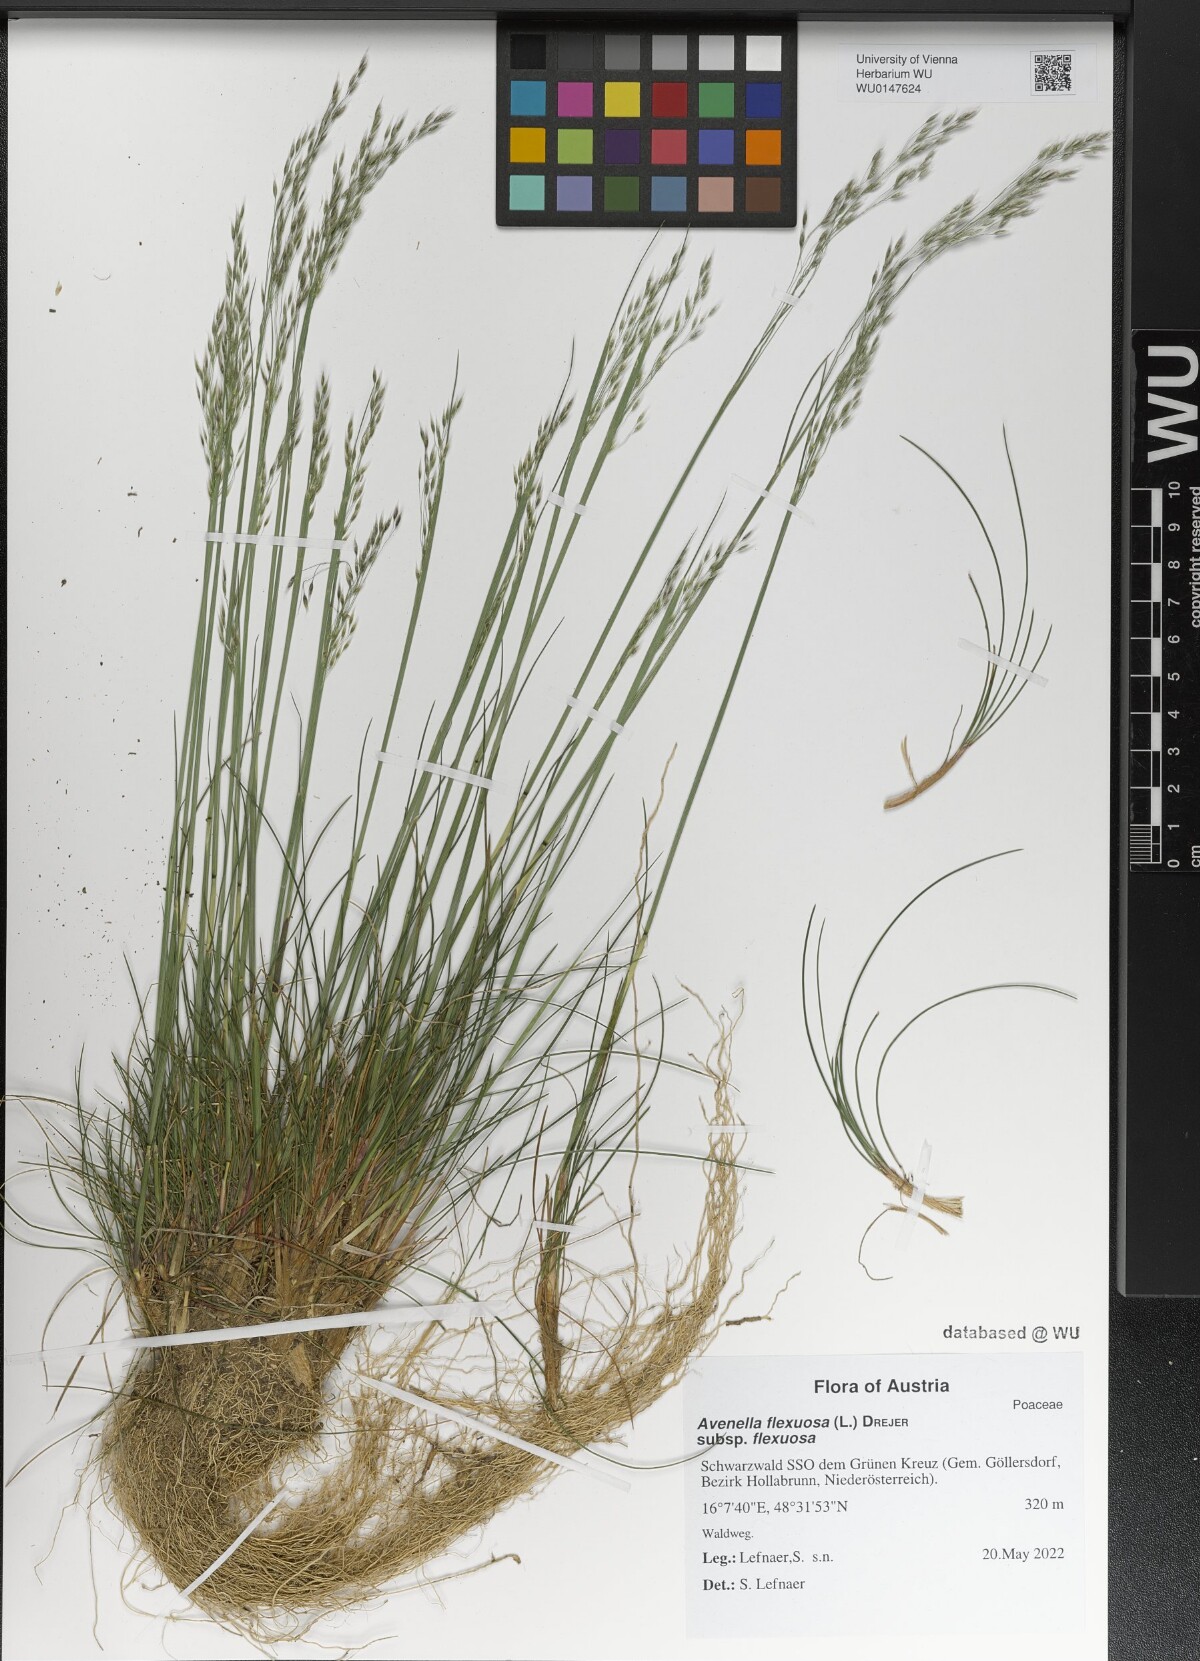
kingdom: Plantae
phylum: Tracheophyta
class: Liliopsida
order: Poales
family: Poaceae
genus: Avenella
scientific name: Avenella flexuosa
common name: Wavy hairgrass
